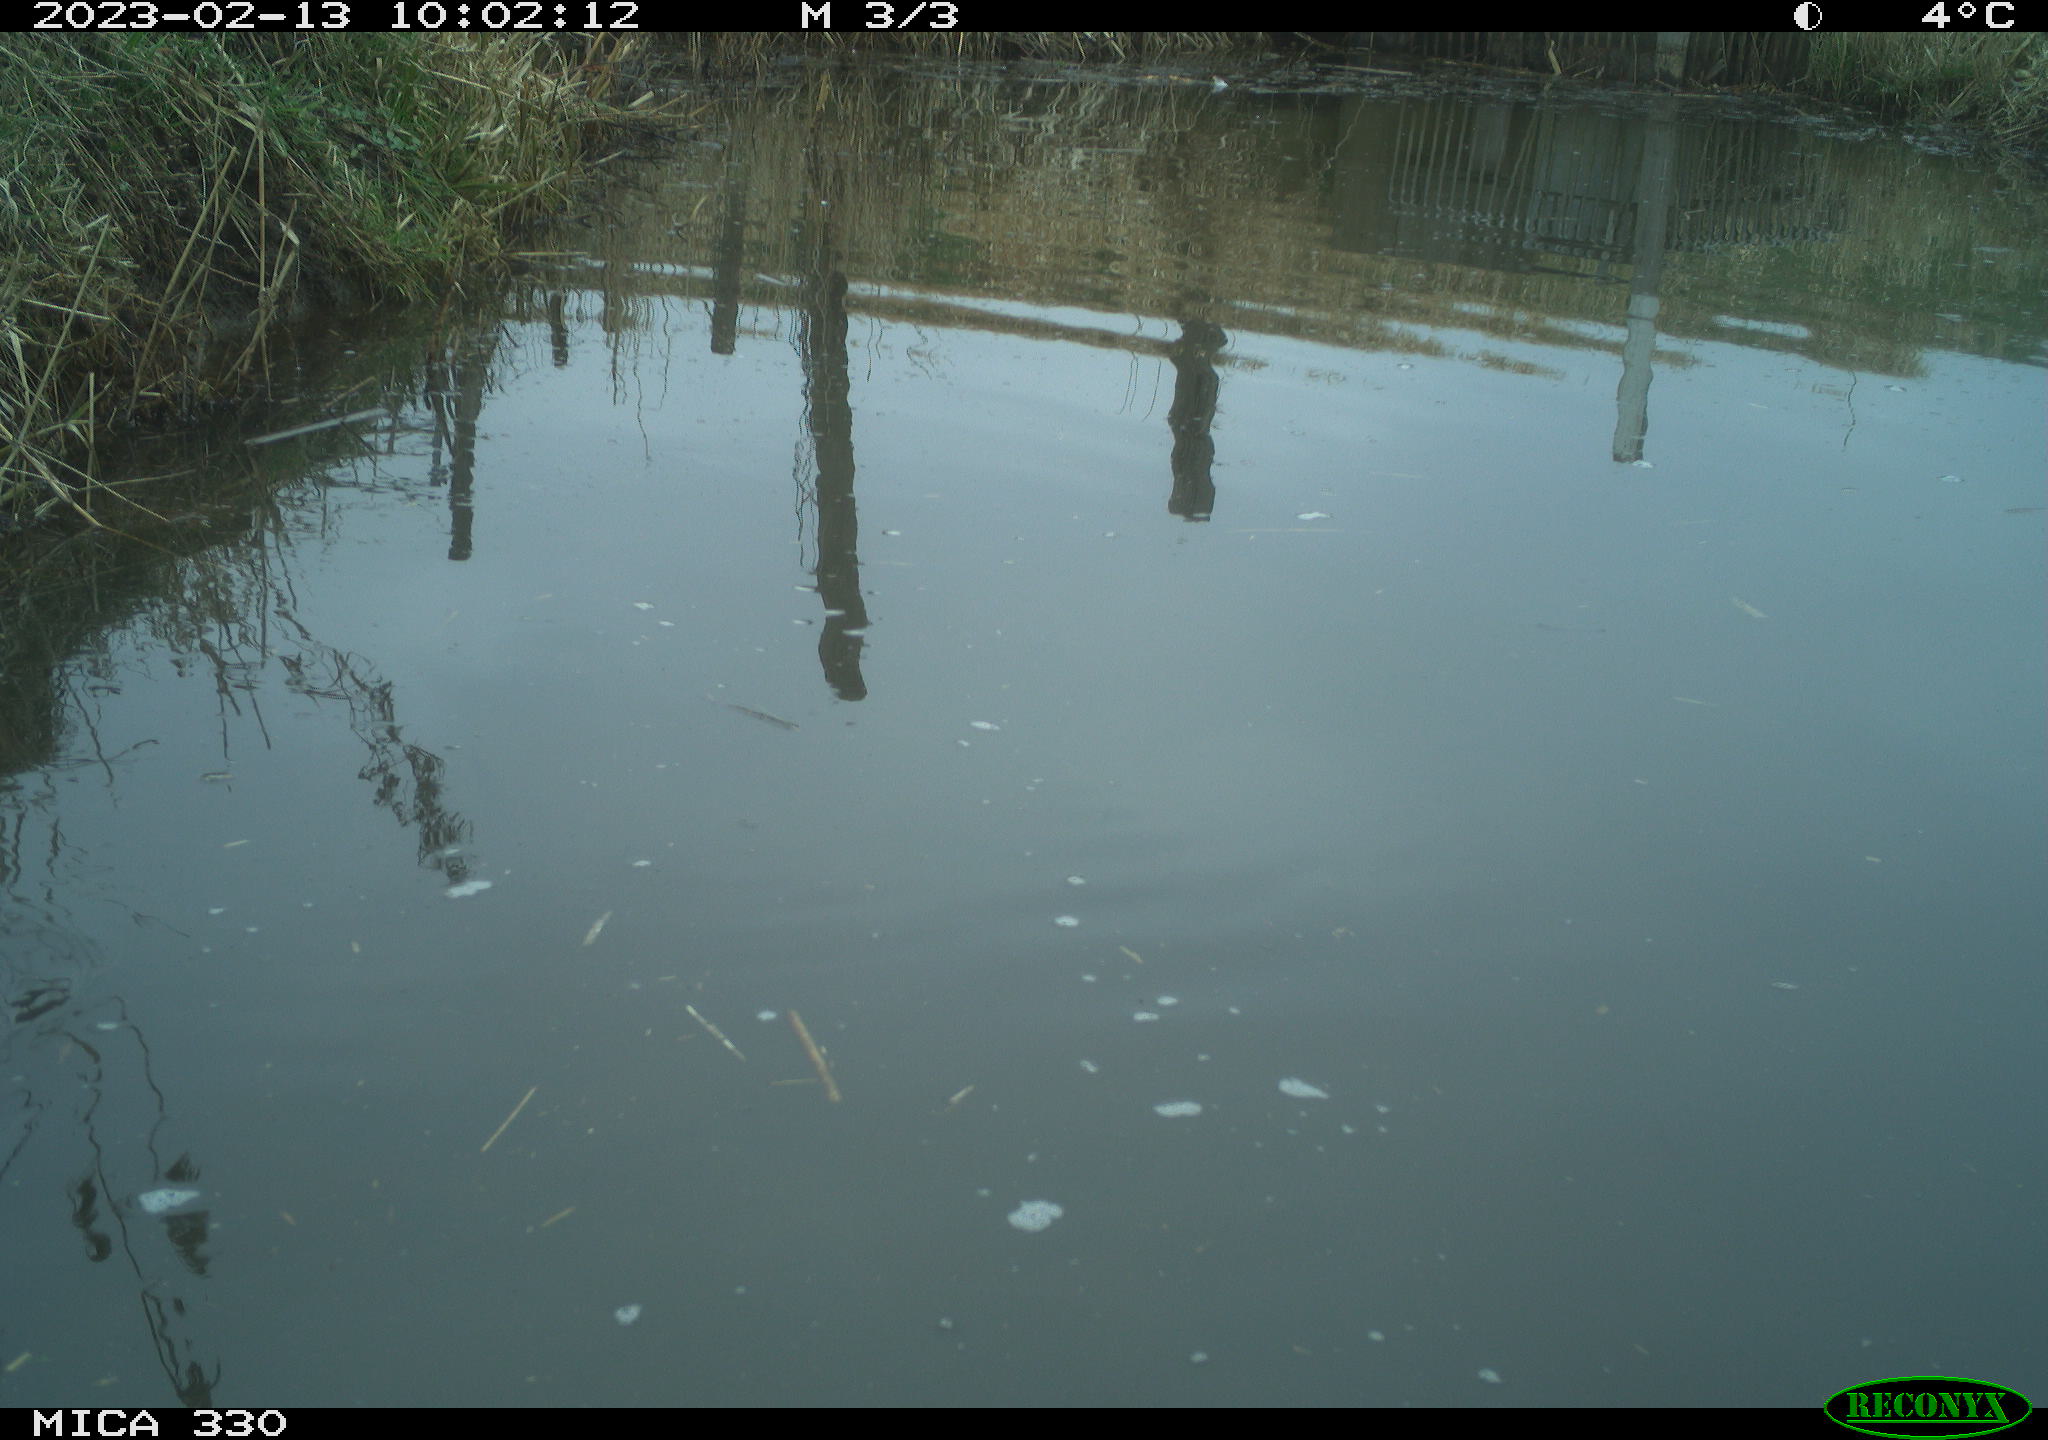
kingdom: Animalia
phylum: Chordata
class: Aves
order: Anseriformes
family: Anatidae
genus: Anas
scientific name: Anas
